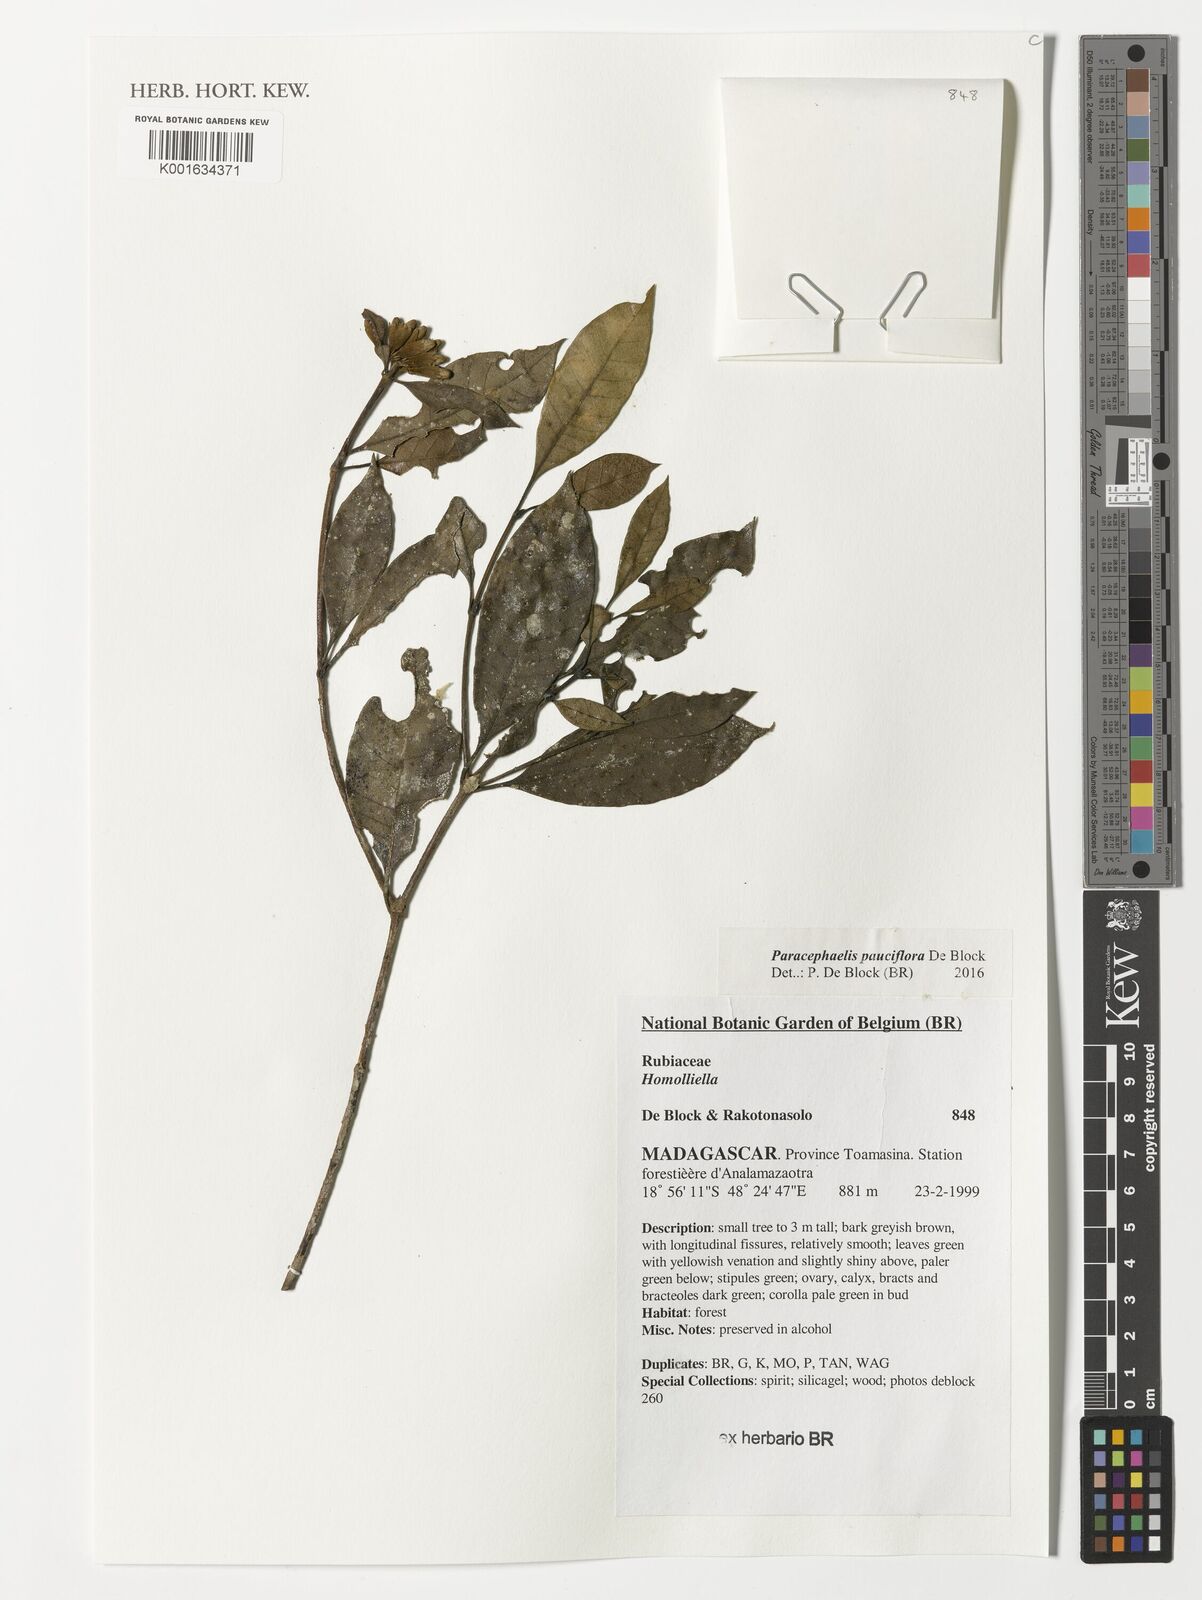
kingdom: Plantae
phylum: Tracheophyta
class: Magnoliopsida
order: Gentianales
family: Rubiaceae
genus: Paracephaelis
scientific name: Paracephaelis
